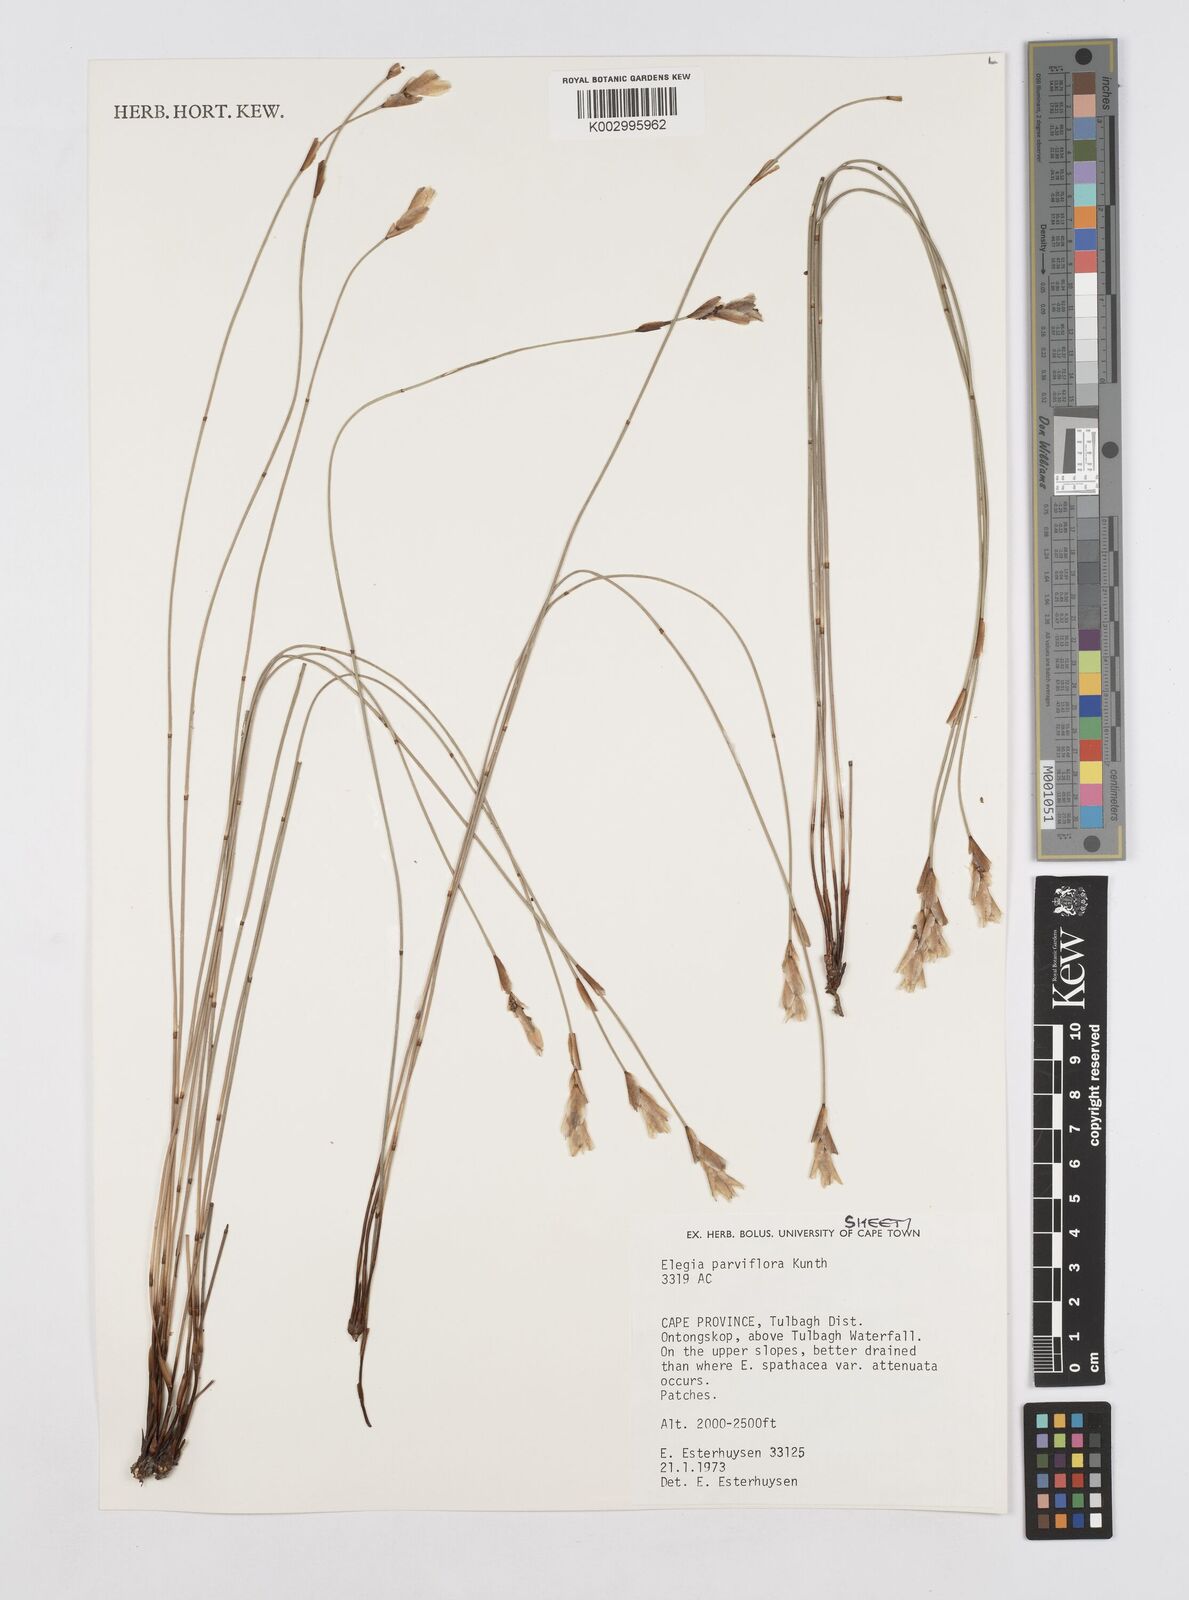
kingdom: Plantae
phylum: Tracheophyta
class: Liliopsida
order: Poales
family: Restionaceae
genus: Cannomois
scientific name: Cannomois parviflora
